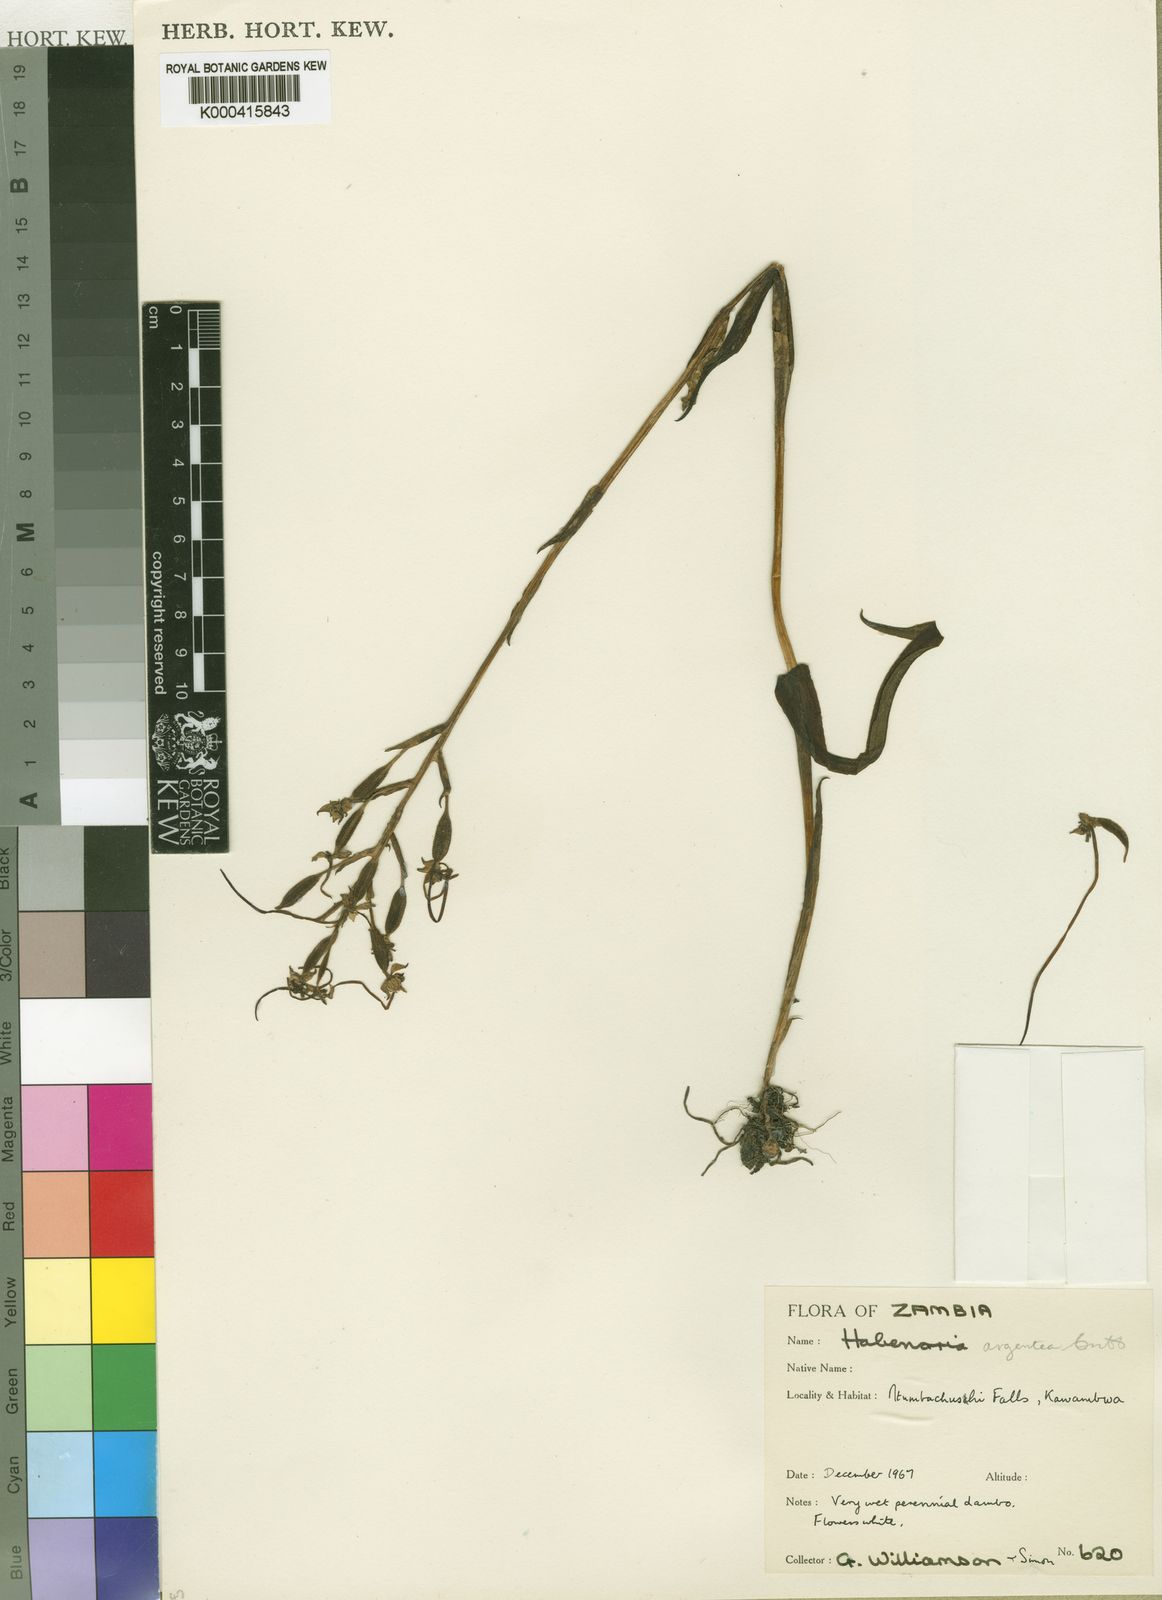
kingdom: Plantae
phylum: Tracheophyta
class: Liliopsida
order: Asparagales
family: Orchidaceae
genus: Habenaria
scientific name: Habenaria argentea
